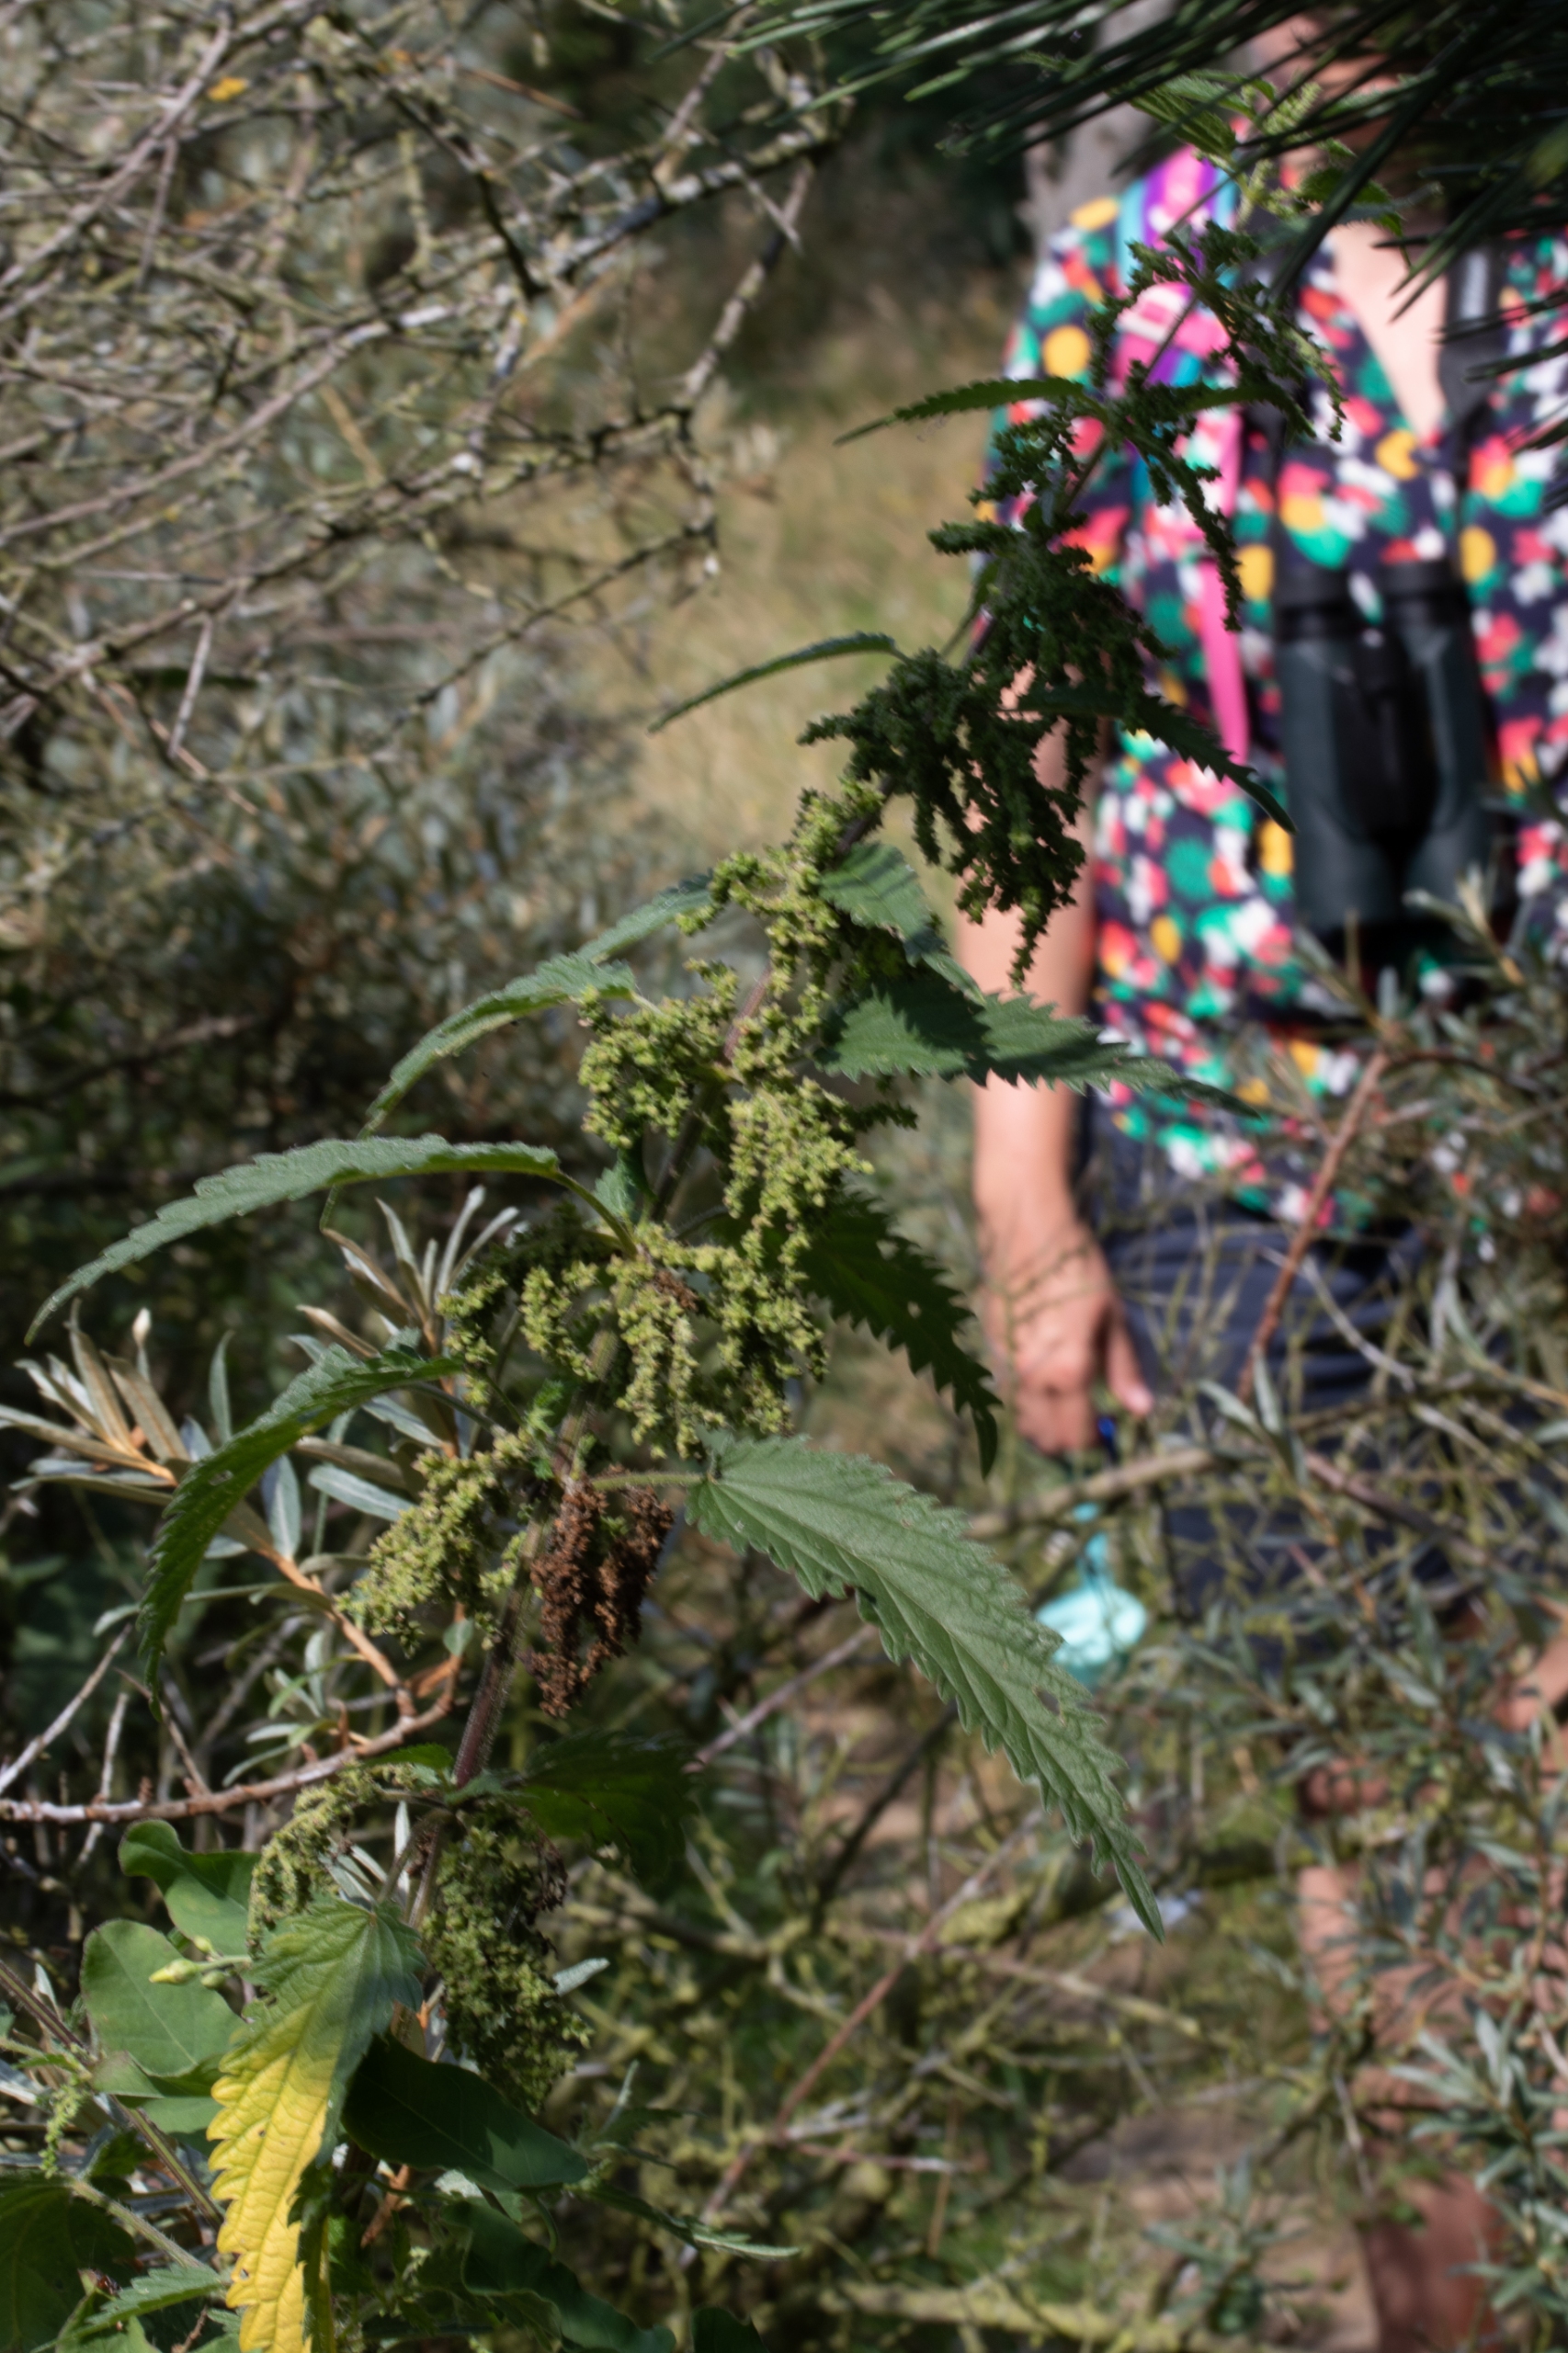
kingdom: Plantae
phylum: Tracheophyta
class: Magnoliopsida
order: Rosales
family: Urticaceae
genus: Urtica
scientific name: Urtica dioica
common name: Skov-nælde
